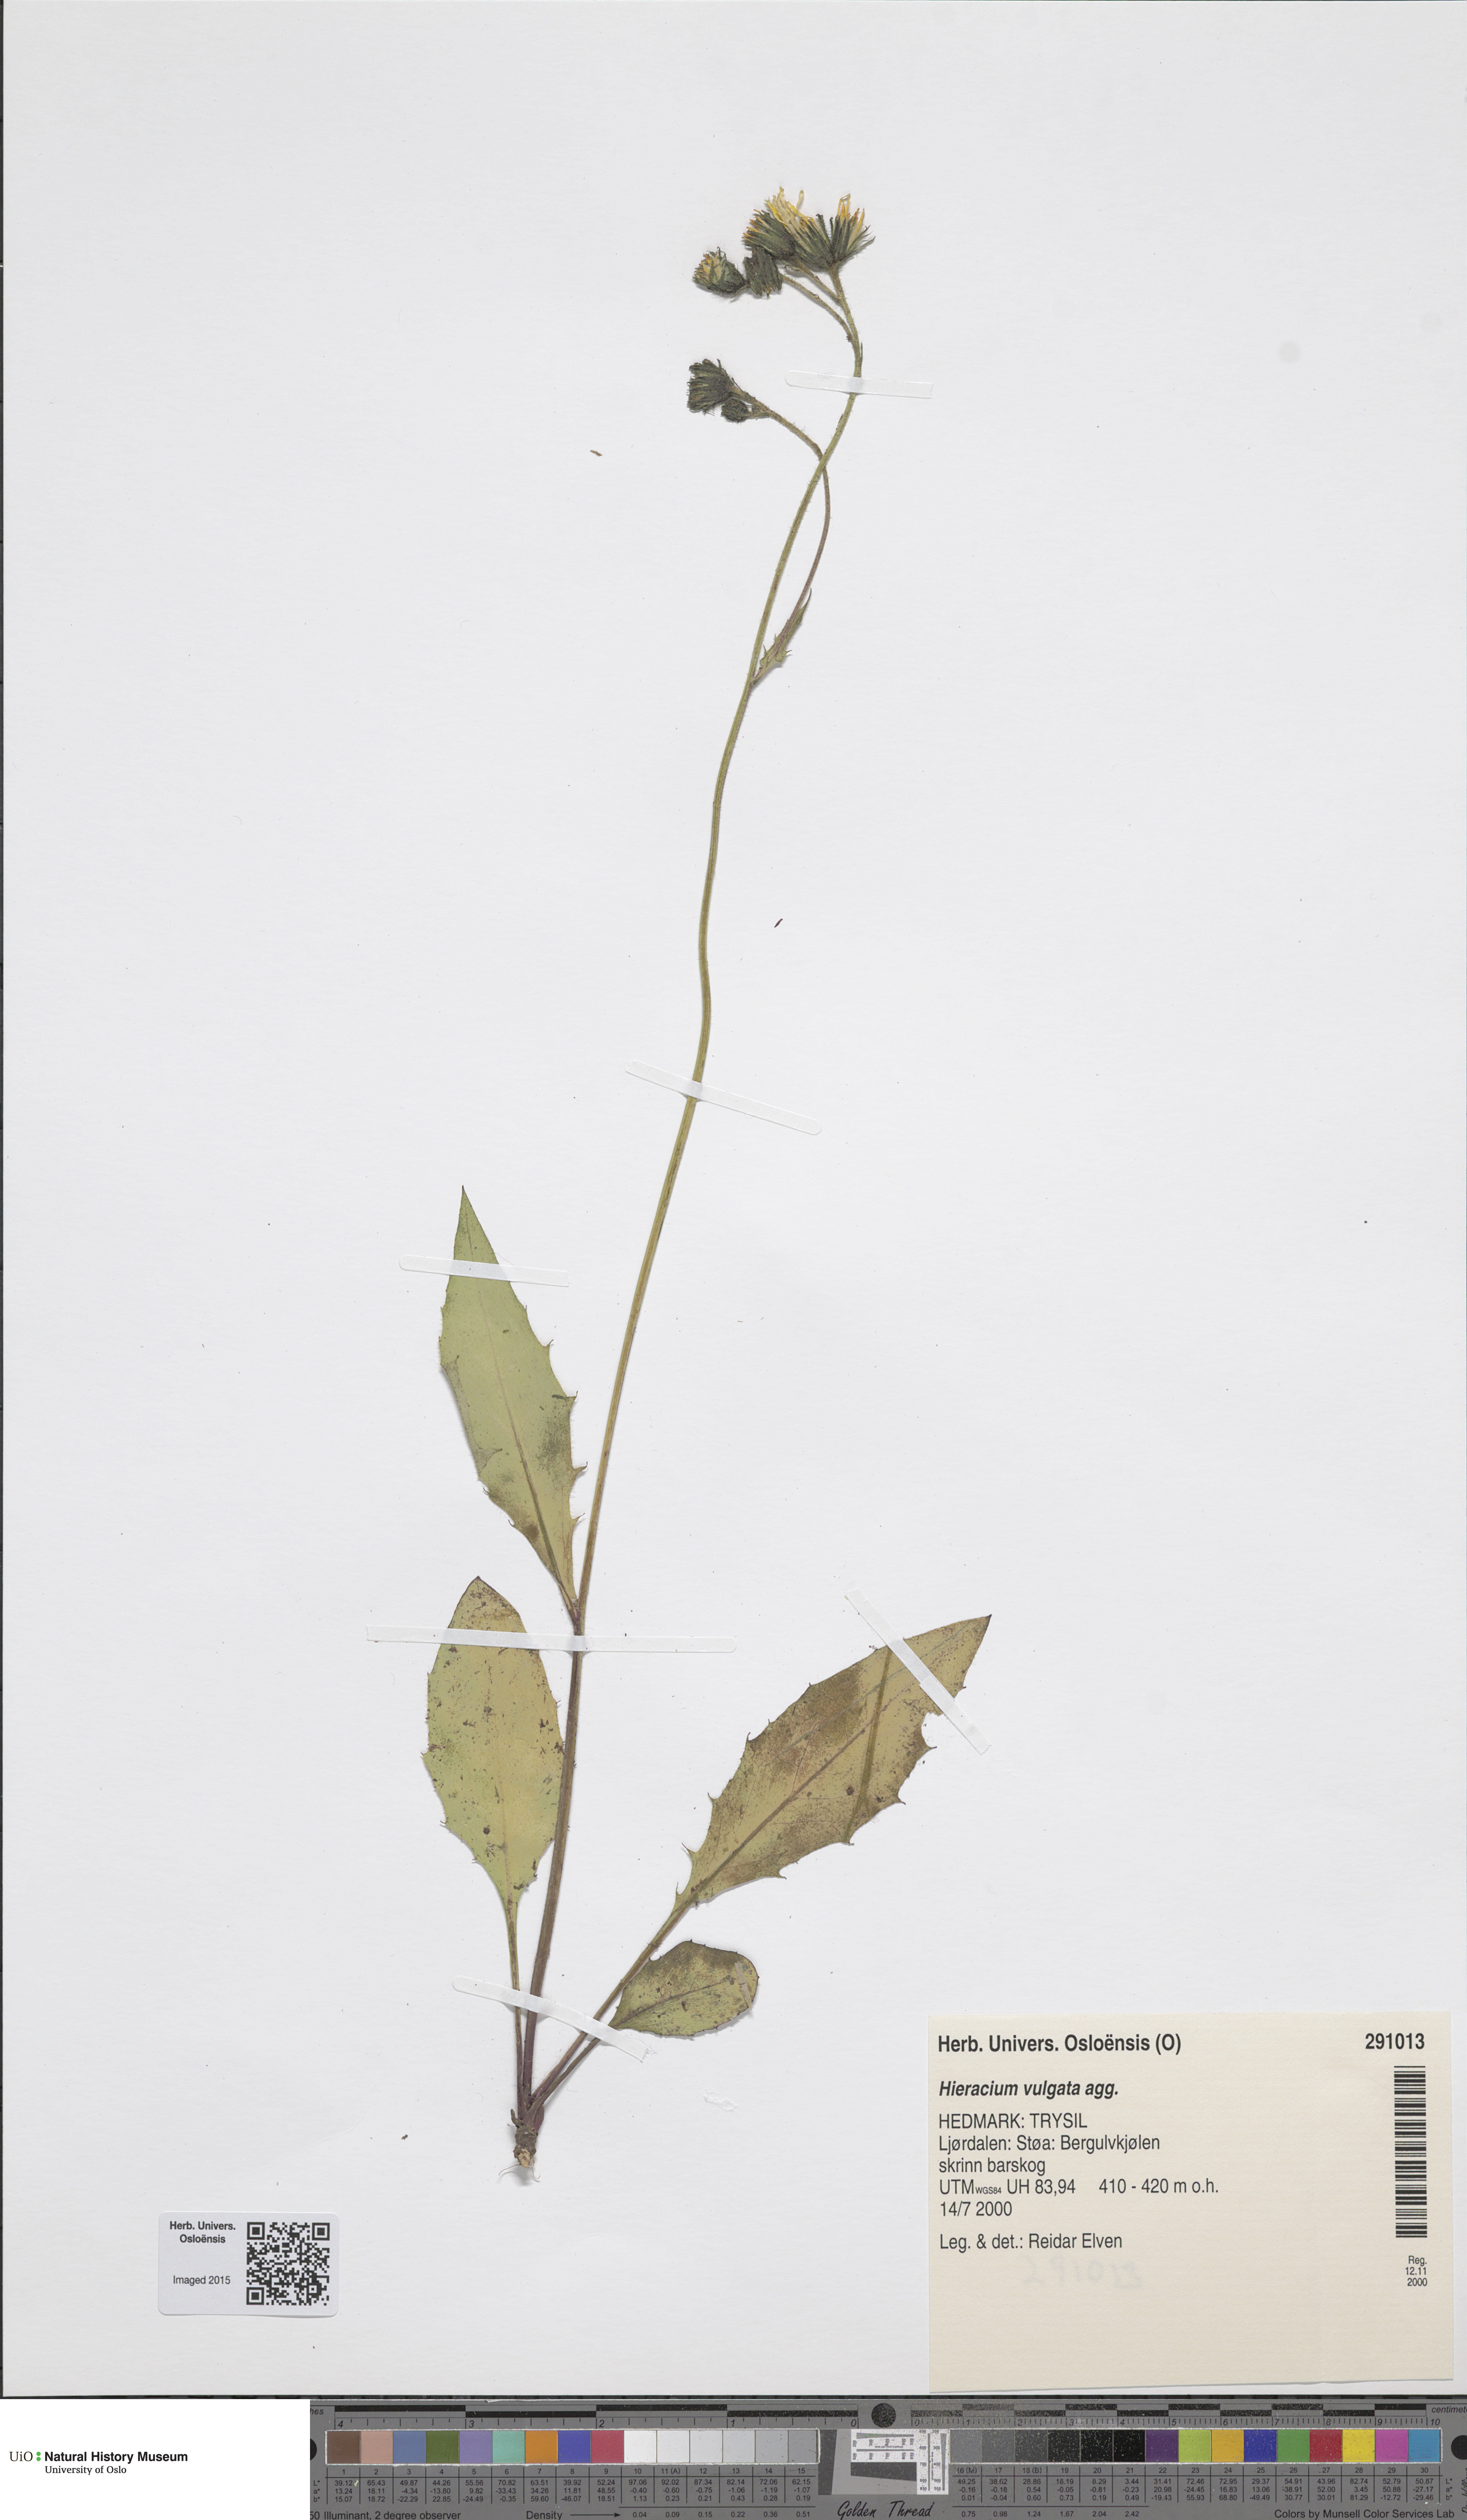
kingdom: Plantae
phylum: Tracheophyta
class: Magnoliopsida
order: Asterales
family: Asteraceae
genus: Hieracium
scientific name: Hieracium vulgatum
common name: Common hawkweed
